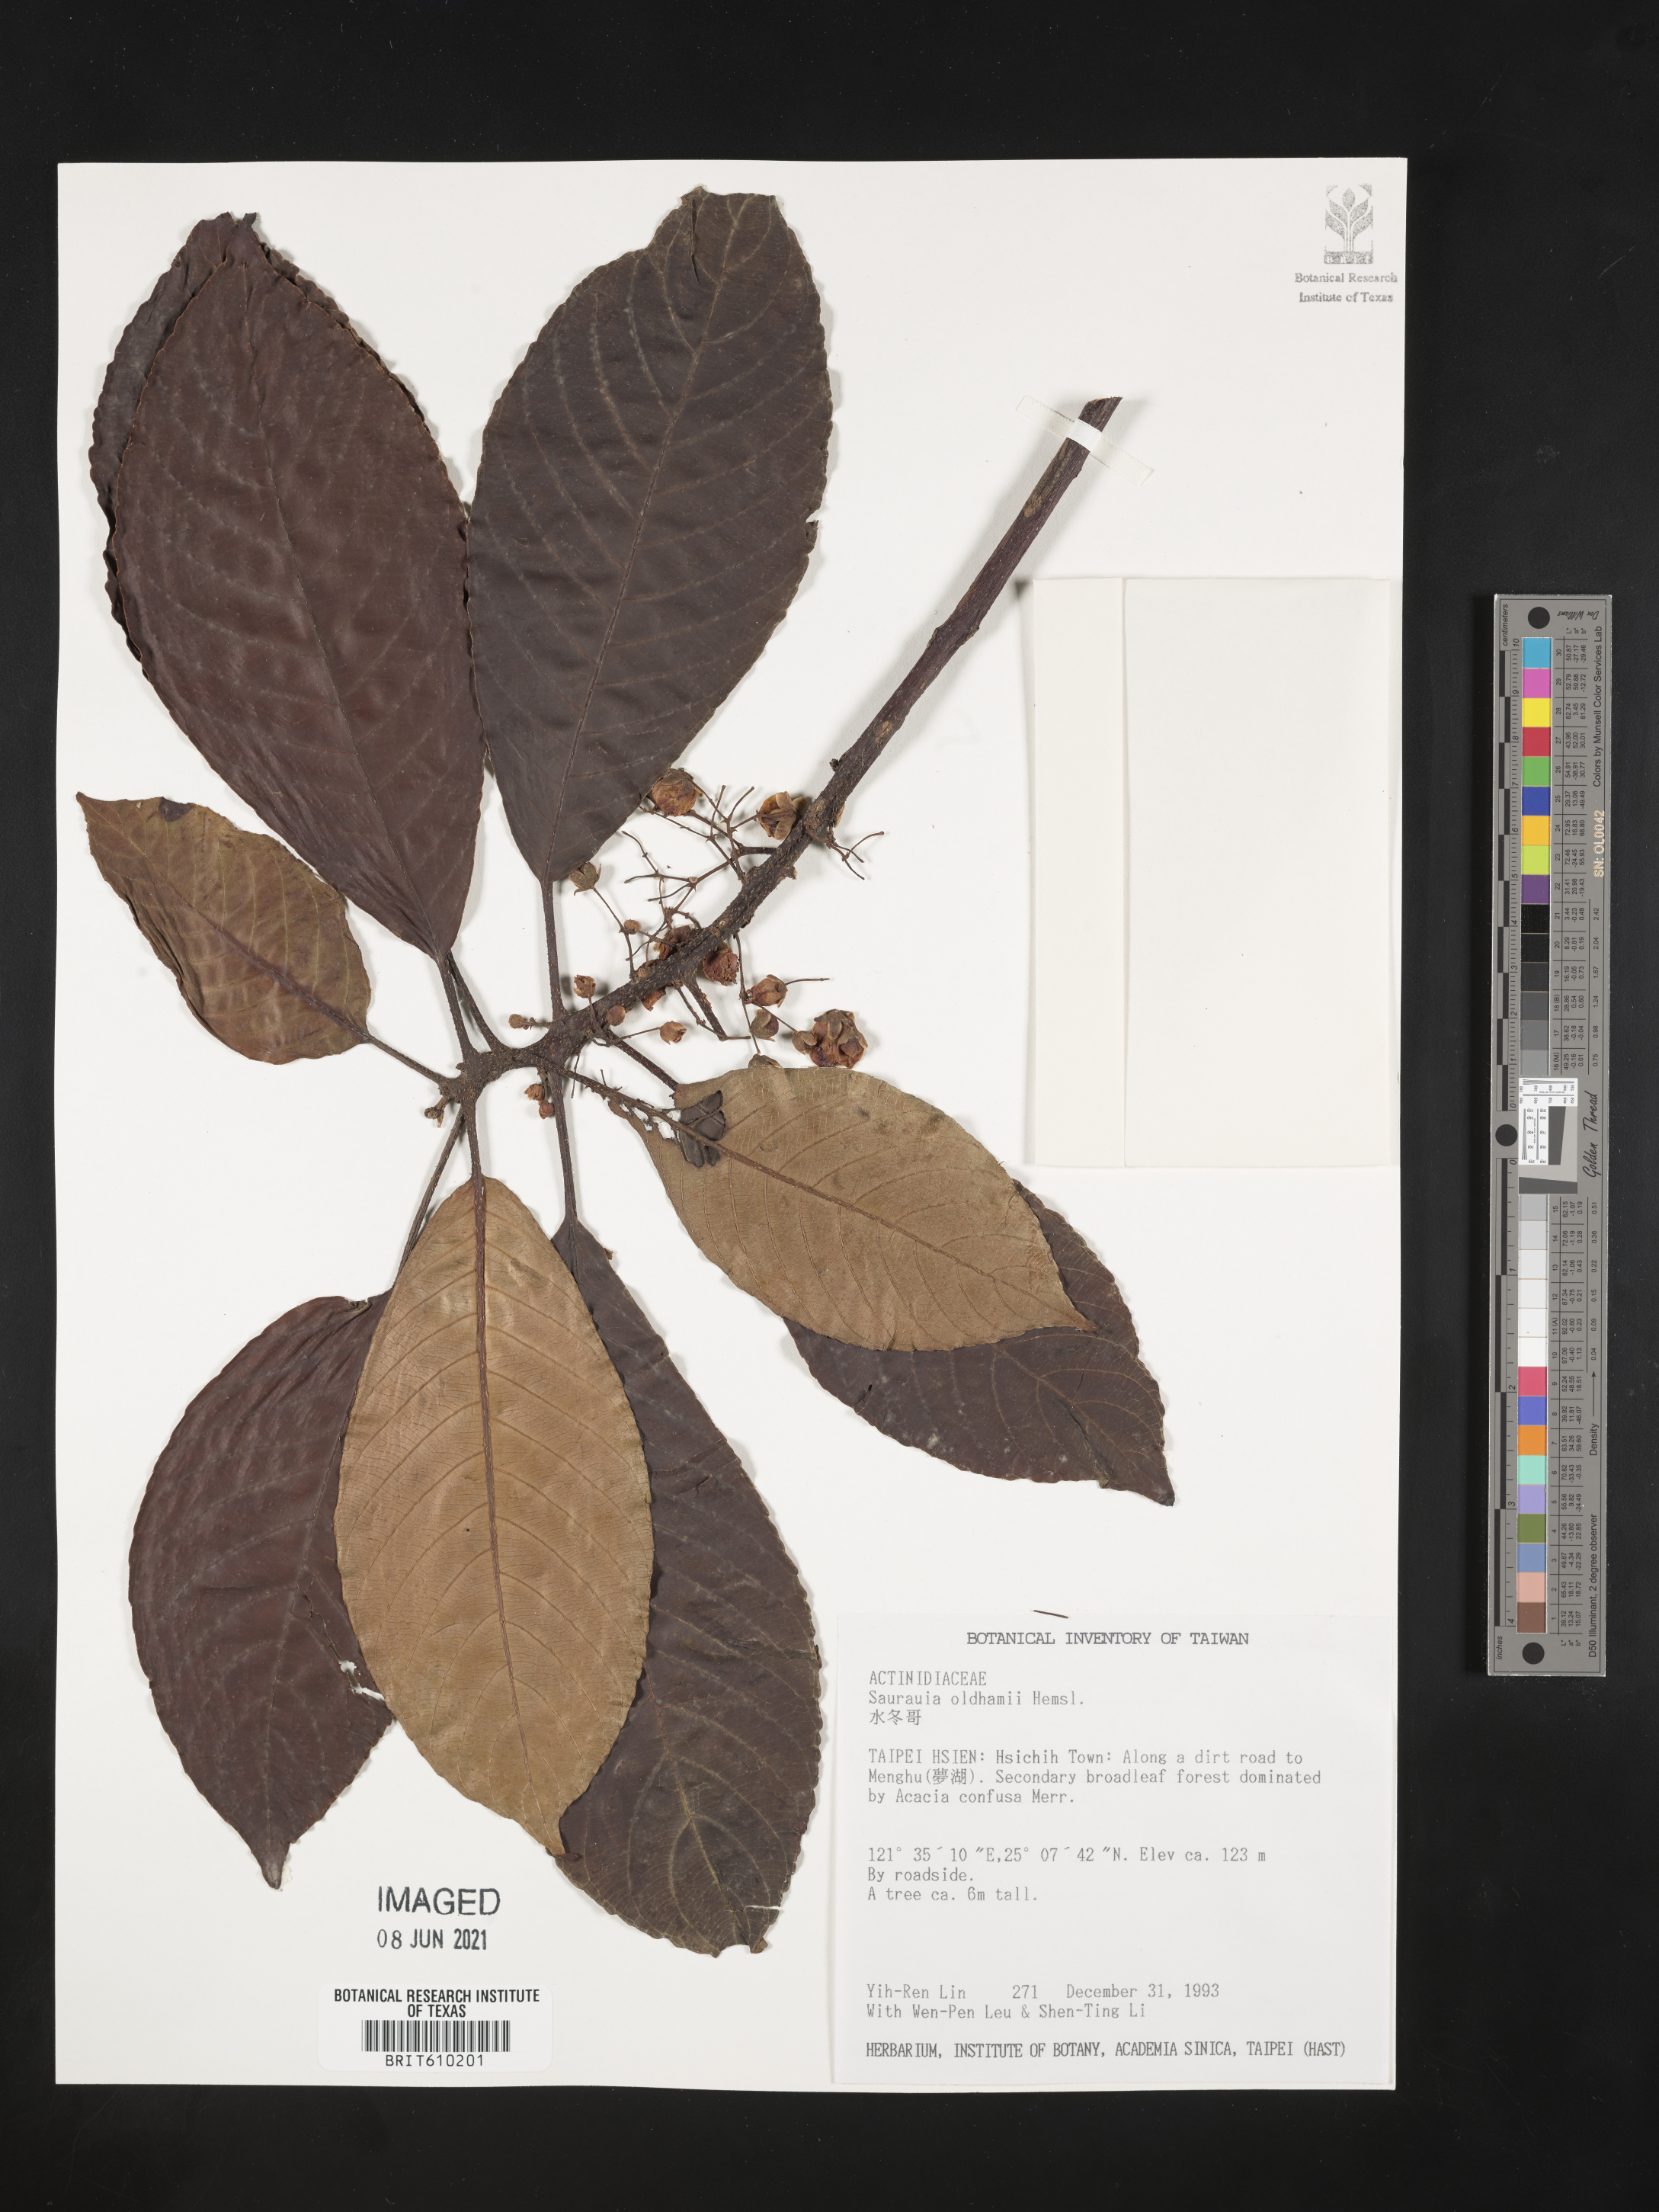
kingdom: Plantae
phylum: Tracheophyta
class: Magnoliopsida
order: Ericales
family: Actinidiaceae
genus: Saurauia
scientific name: Saurauia tristyla
